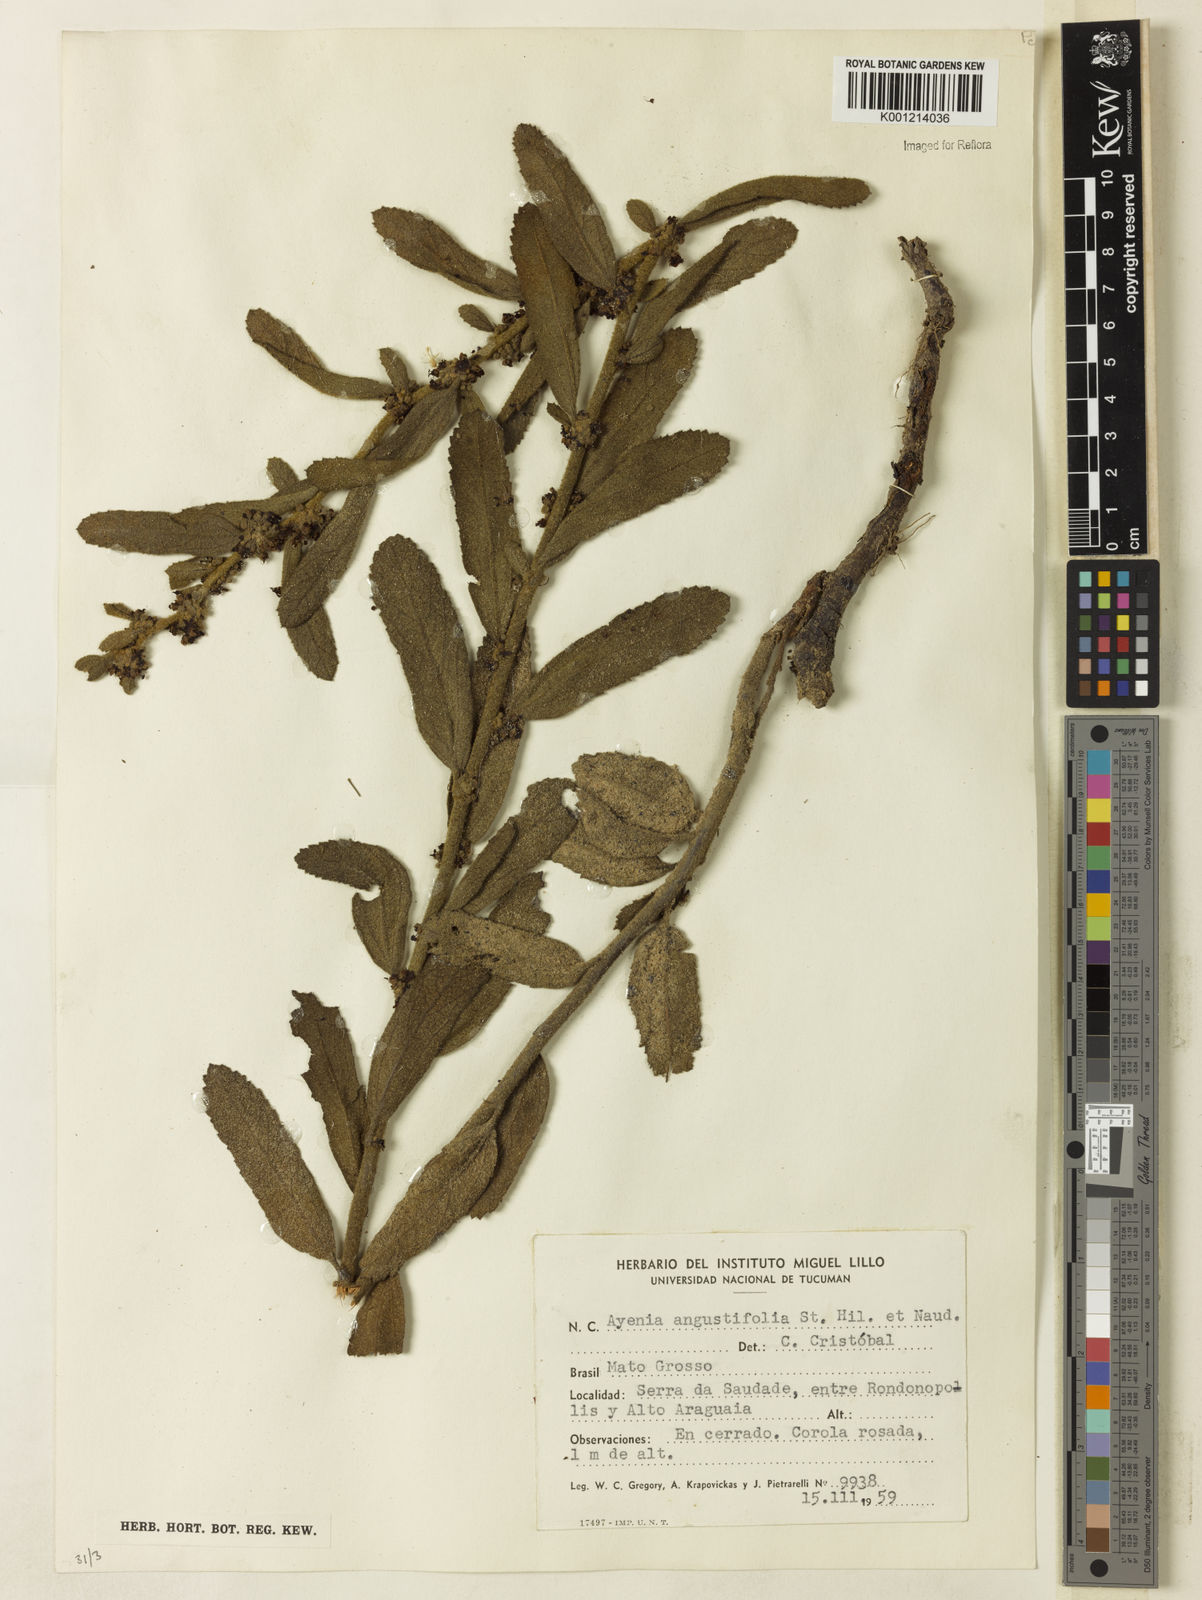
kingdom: Plantae
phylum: Tracheophyta
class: Magnoliopsida
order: Malvales
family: Malvaceae
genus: Ayenia
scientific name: Ayenia angustifolia
